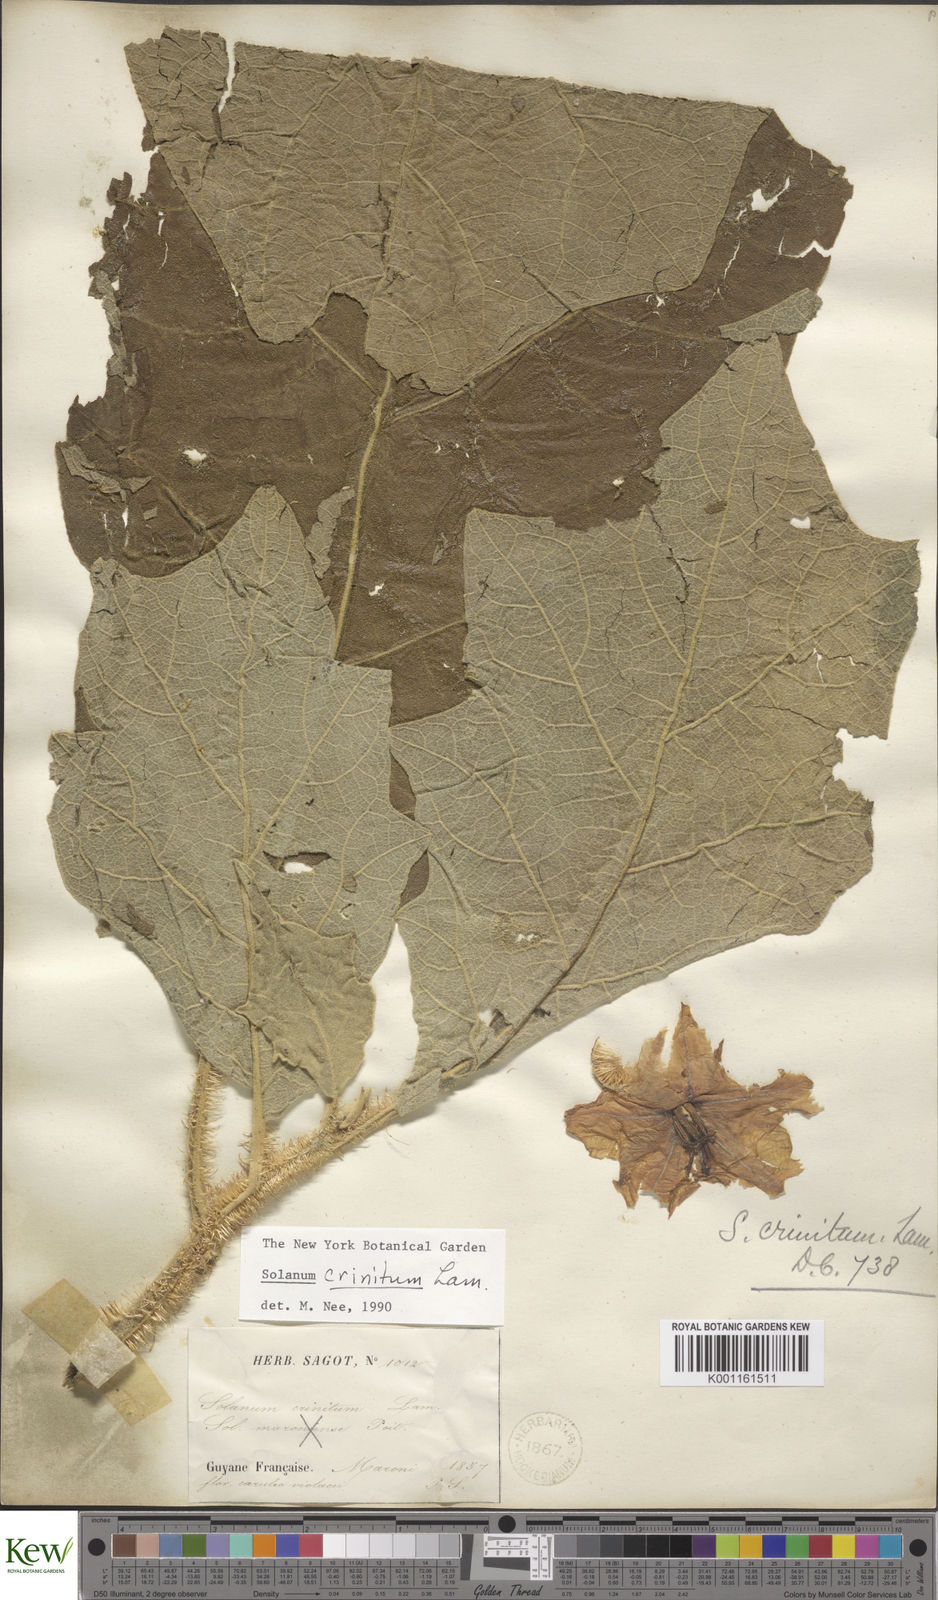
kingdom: Plantae
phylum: Tracheophyta
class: Magnoliopsida
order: Solanales
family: Solanaceae
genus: Solanum
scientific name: Solanum crinitum
